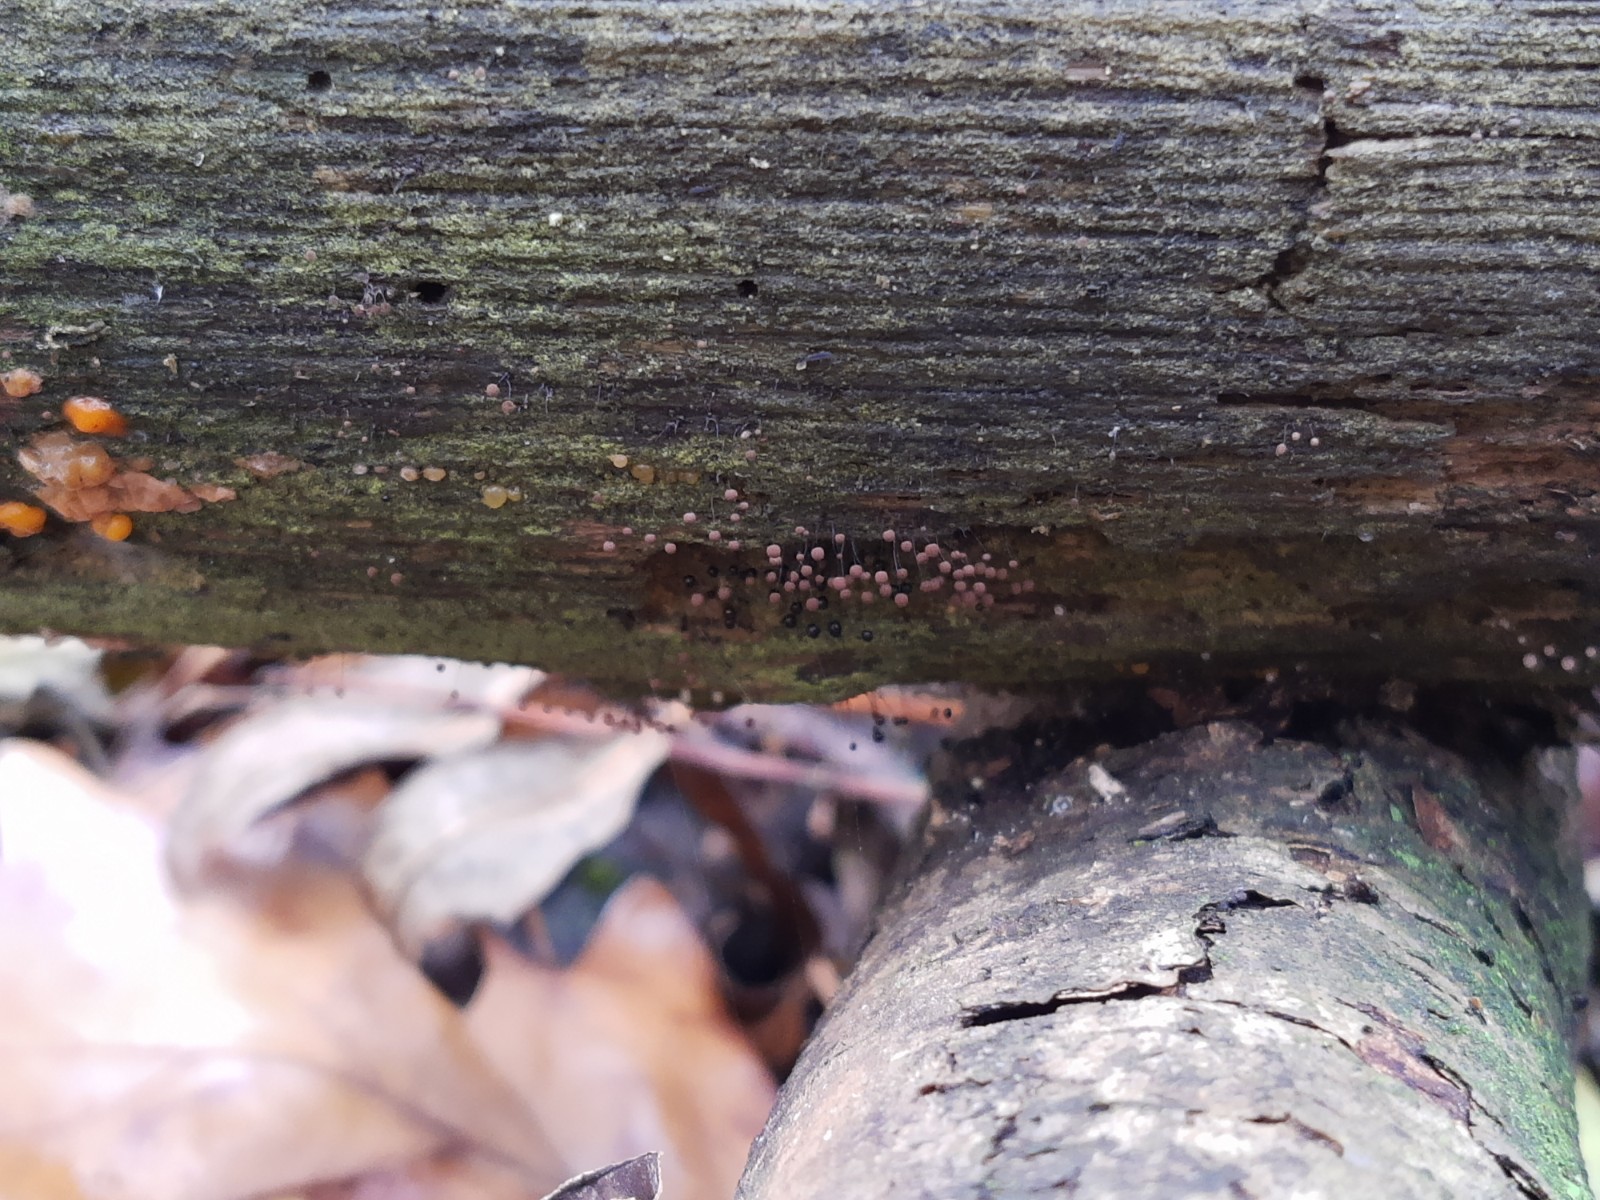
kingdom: Protozoa
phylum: Mycetozoa
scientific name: Mycetozoa
